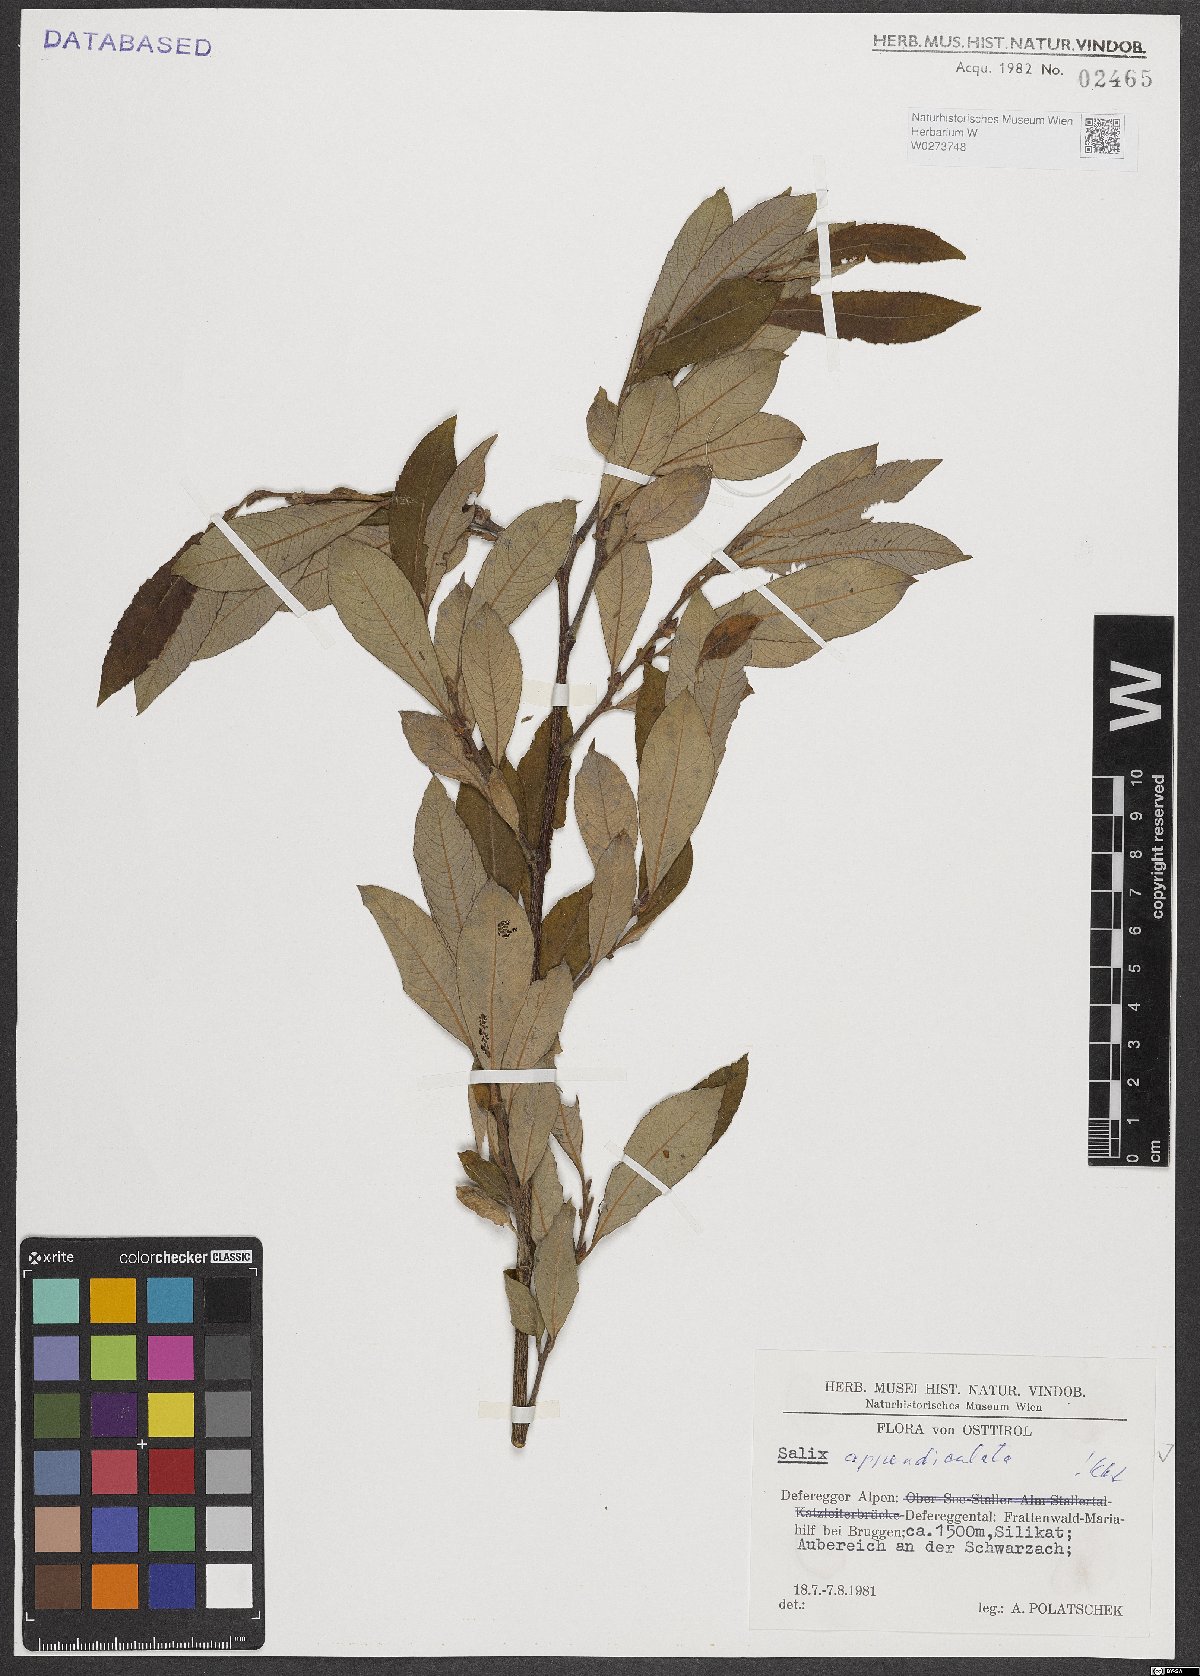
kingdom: Plantae
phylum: Tracheophyta
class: Magnoliopsida
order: Malpighiales
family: Salicaceae
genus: Salix
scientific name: Salix appendiculata
